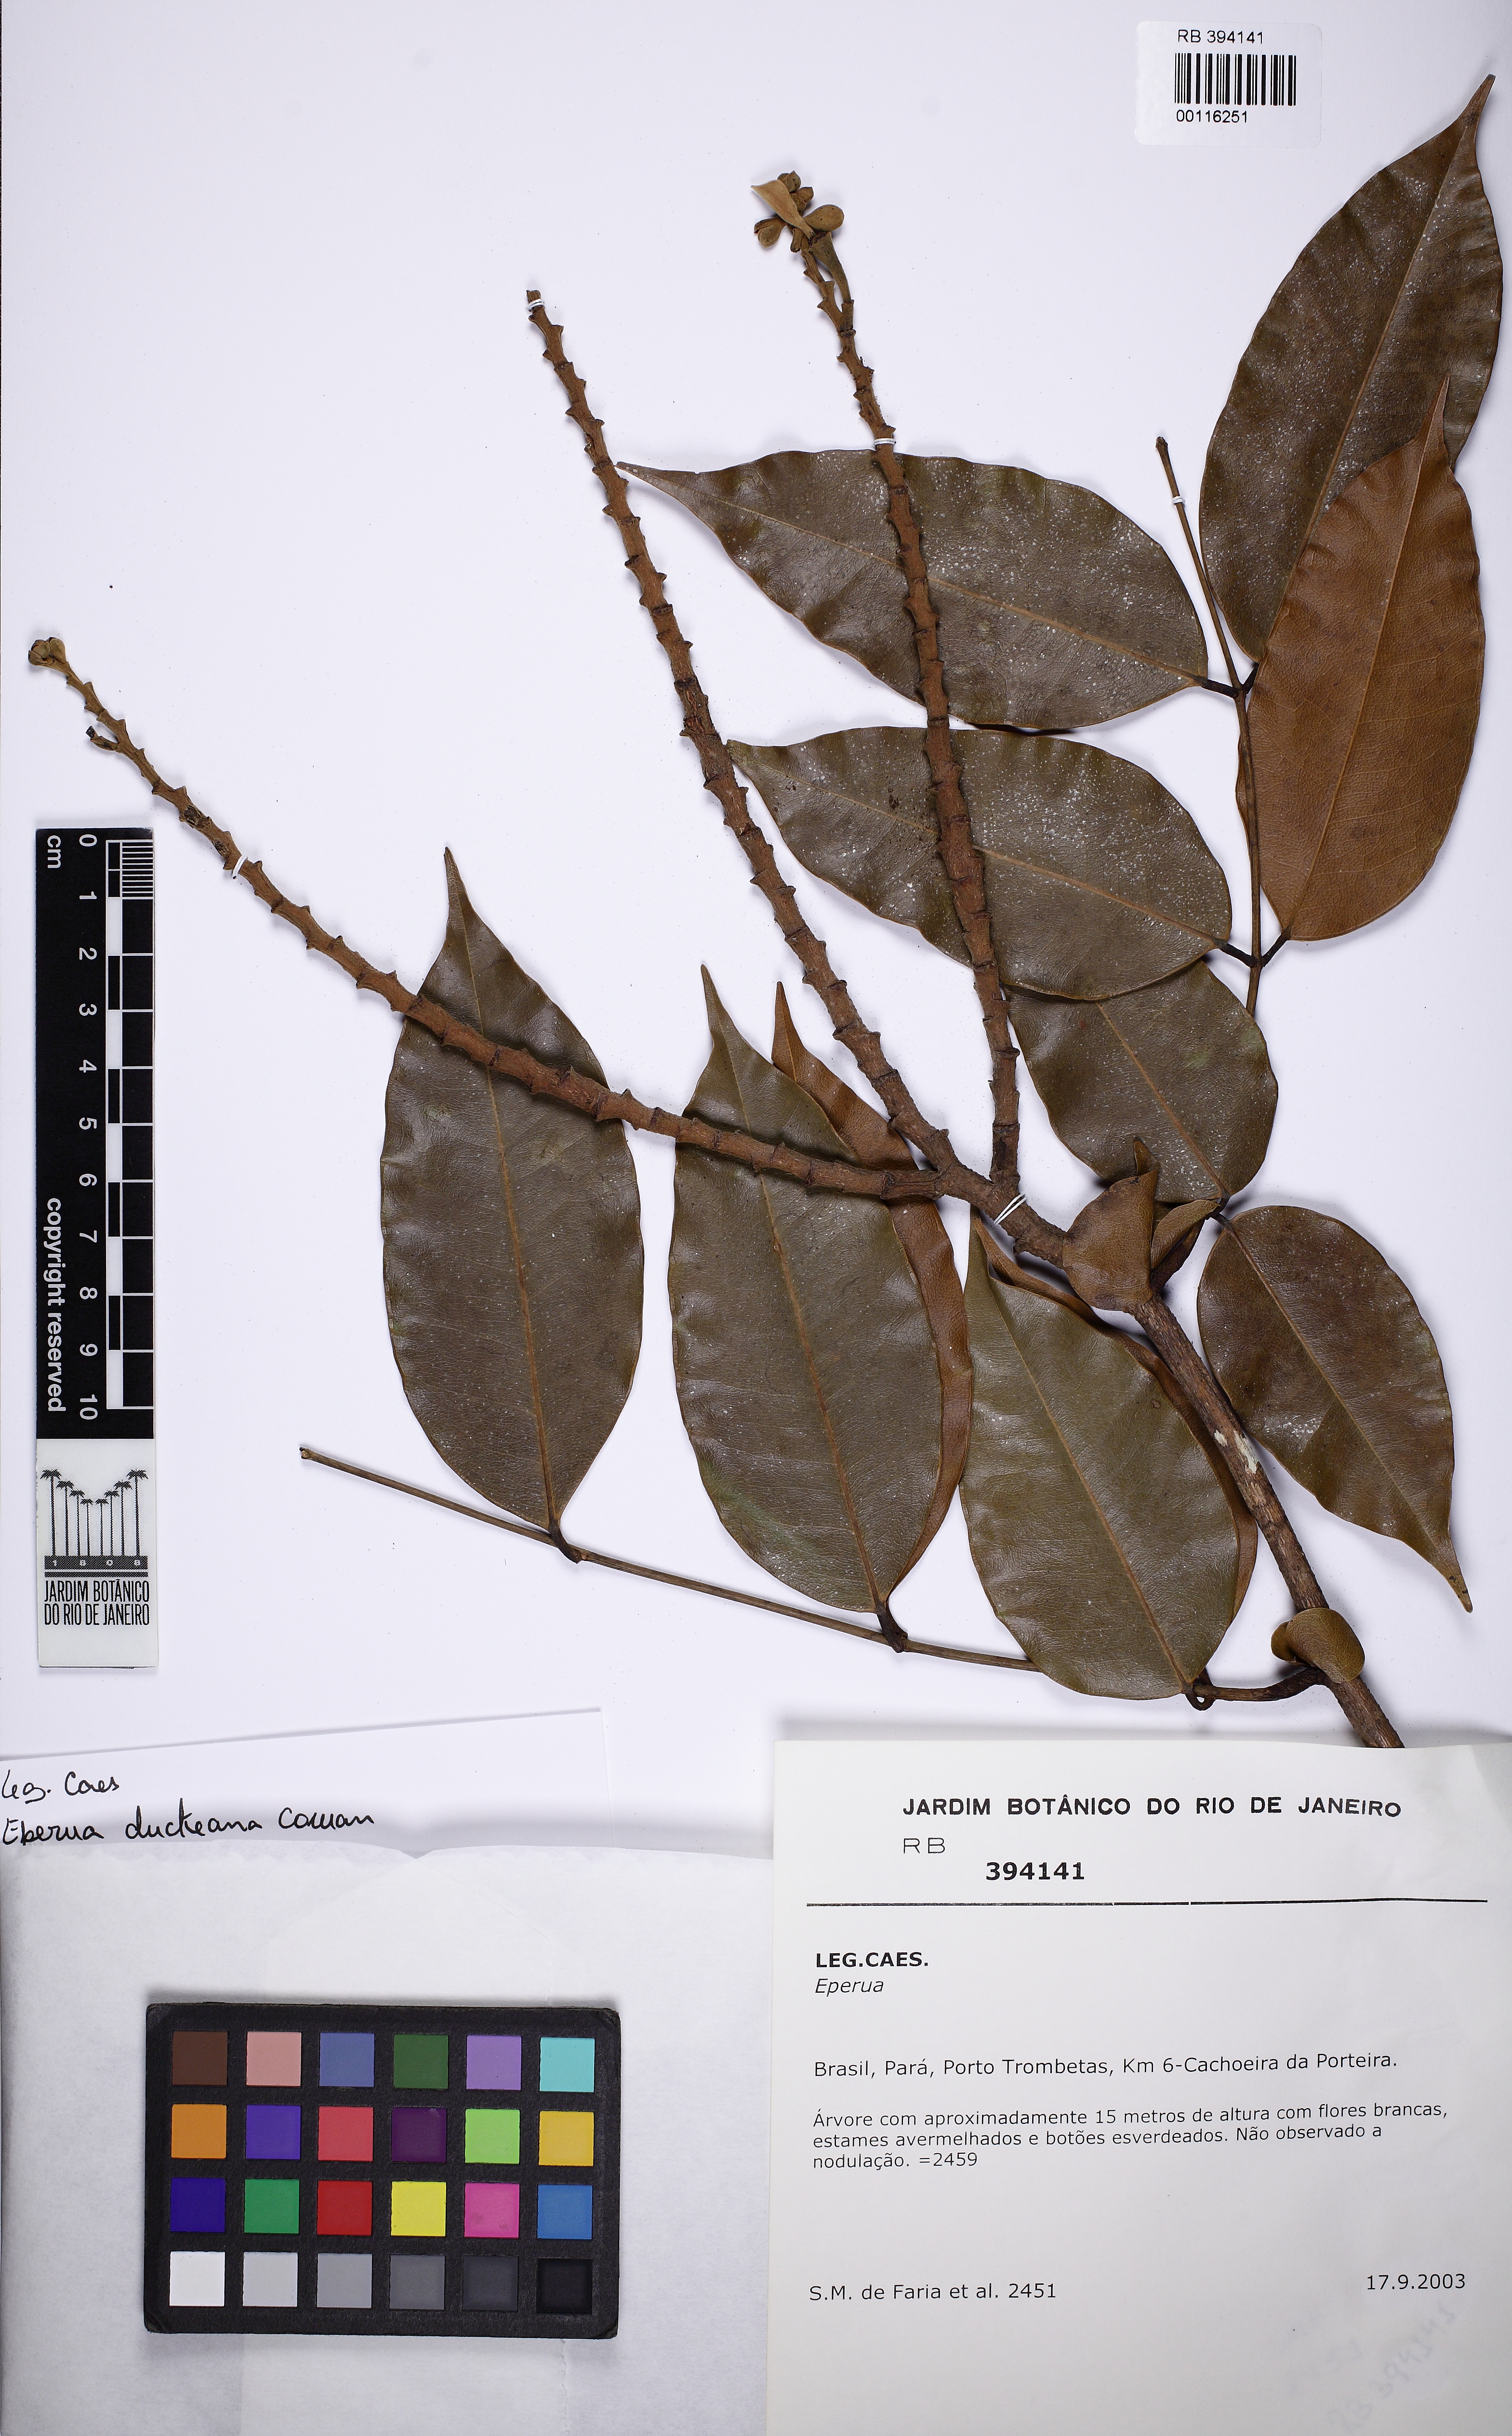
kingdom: Plantae
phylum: Tracheophyta
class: Magnoliopsida
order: Fabales
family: Fabaceae
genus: Eperua
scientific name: Eperua duckeana
